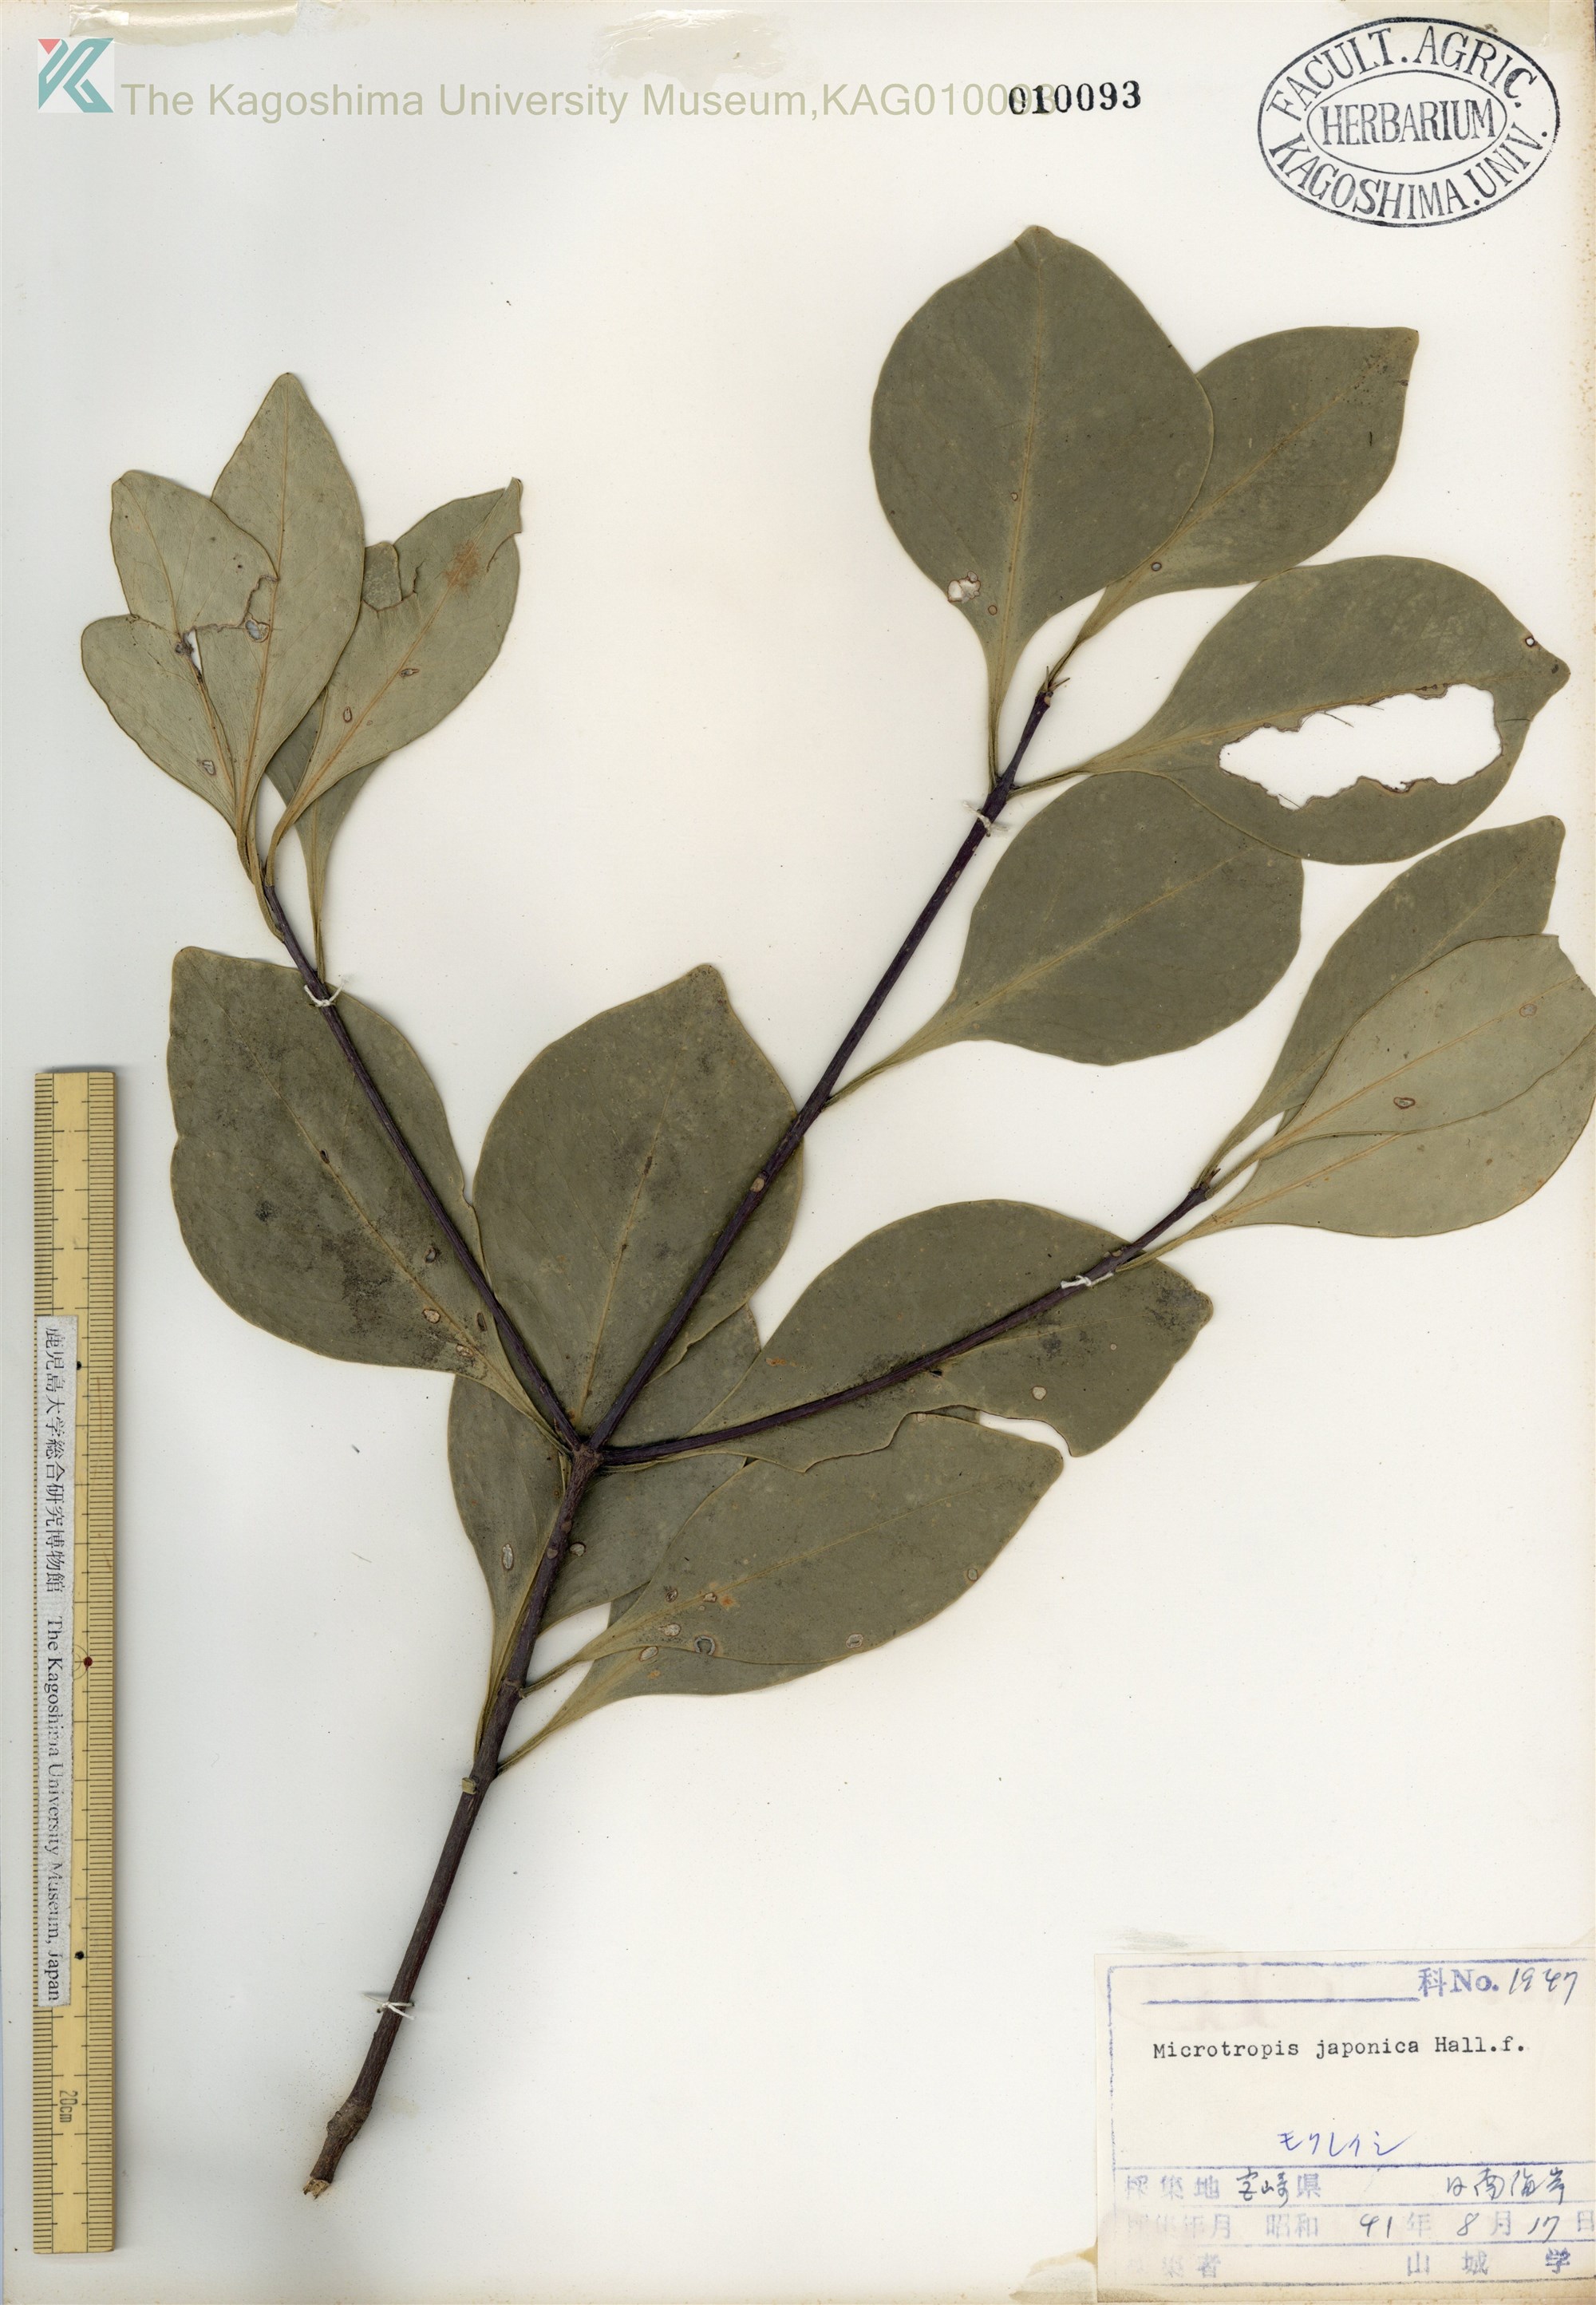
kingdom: Plantae
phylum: Tracheophyta
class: Magnoliopsida
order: Celastrales
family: Celastraceae
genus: Microtropis
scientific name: Microtropis japonica
